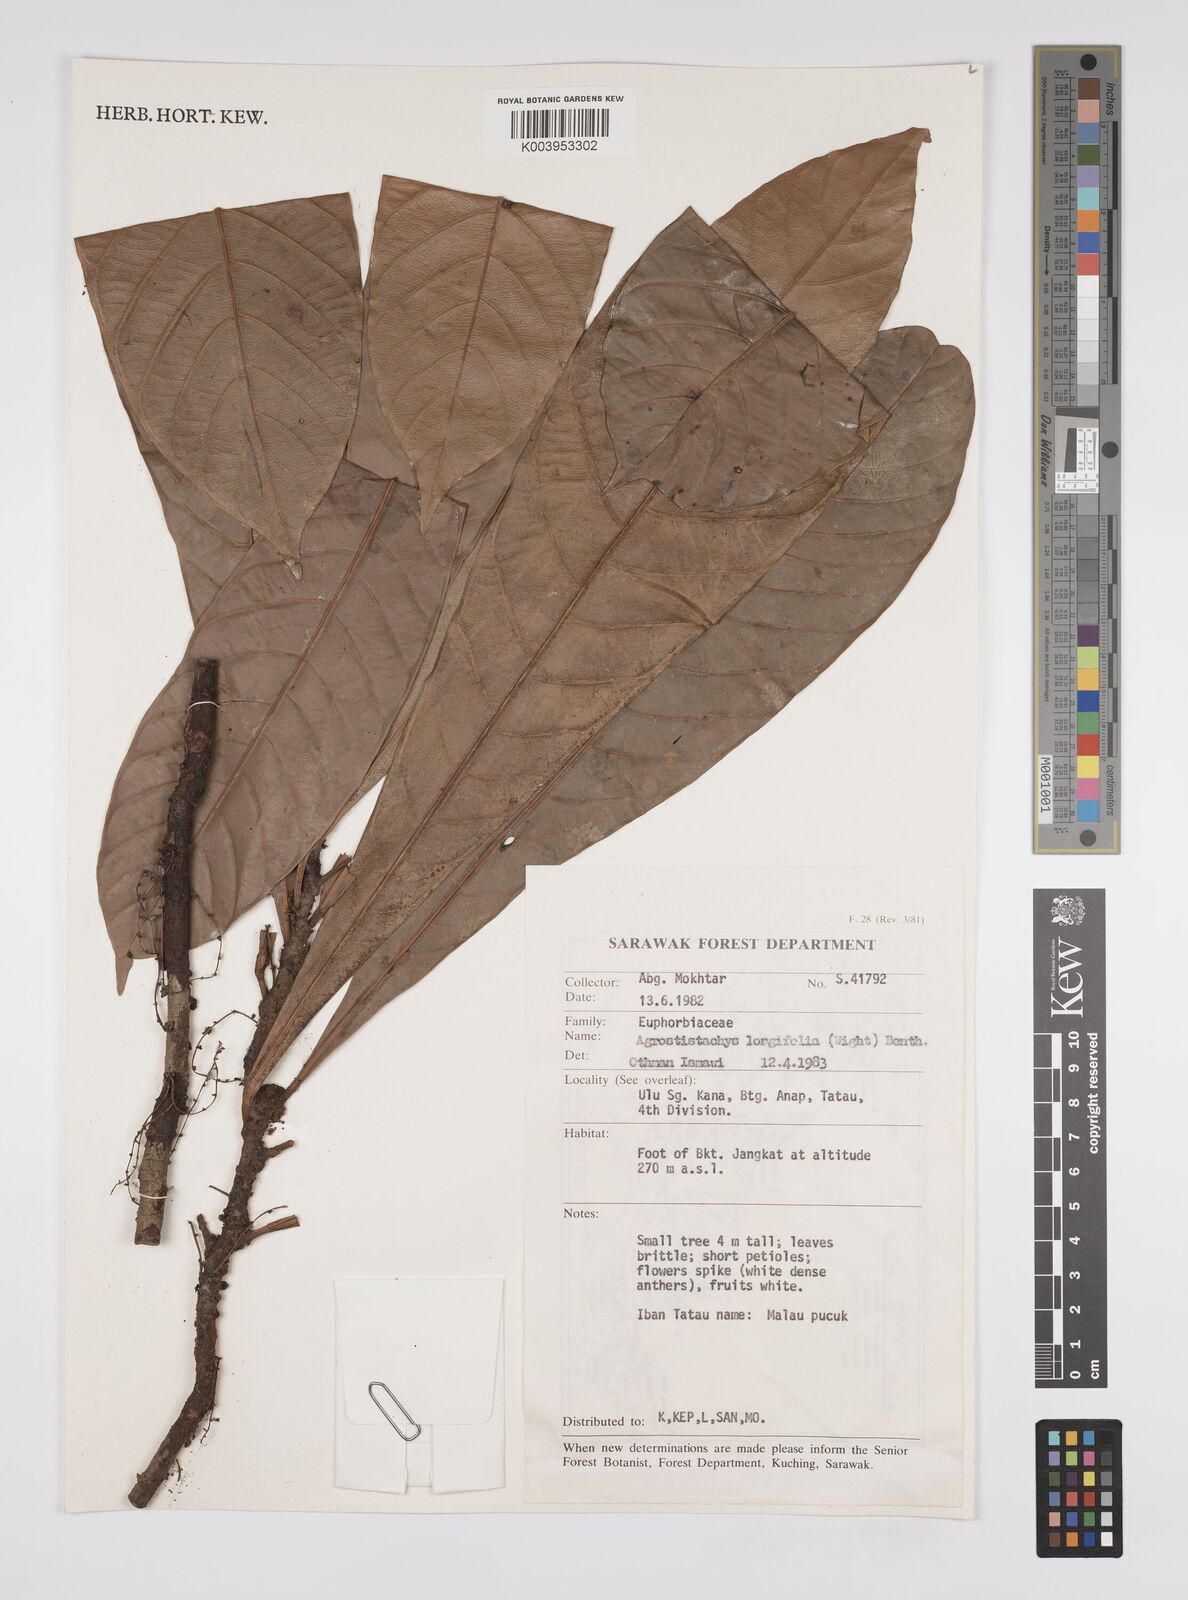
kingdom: Plantae
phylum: Tracheophyta
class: Magnoliopsida
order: Malpighiales
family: Euphorbiaceae
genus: Agrostistachys
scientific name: Agrostistachys
